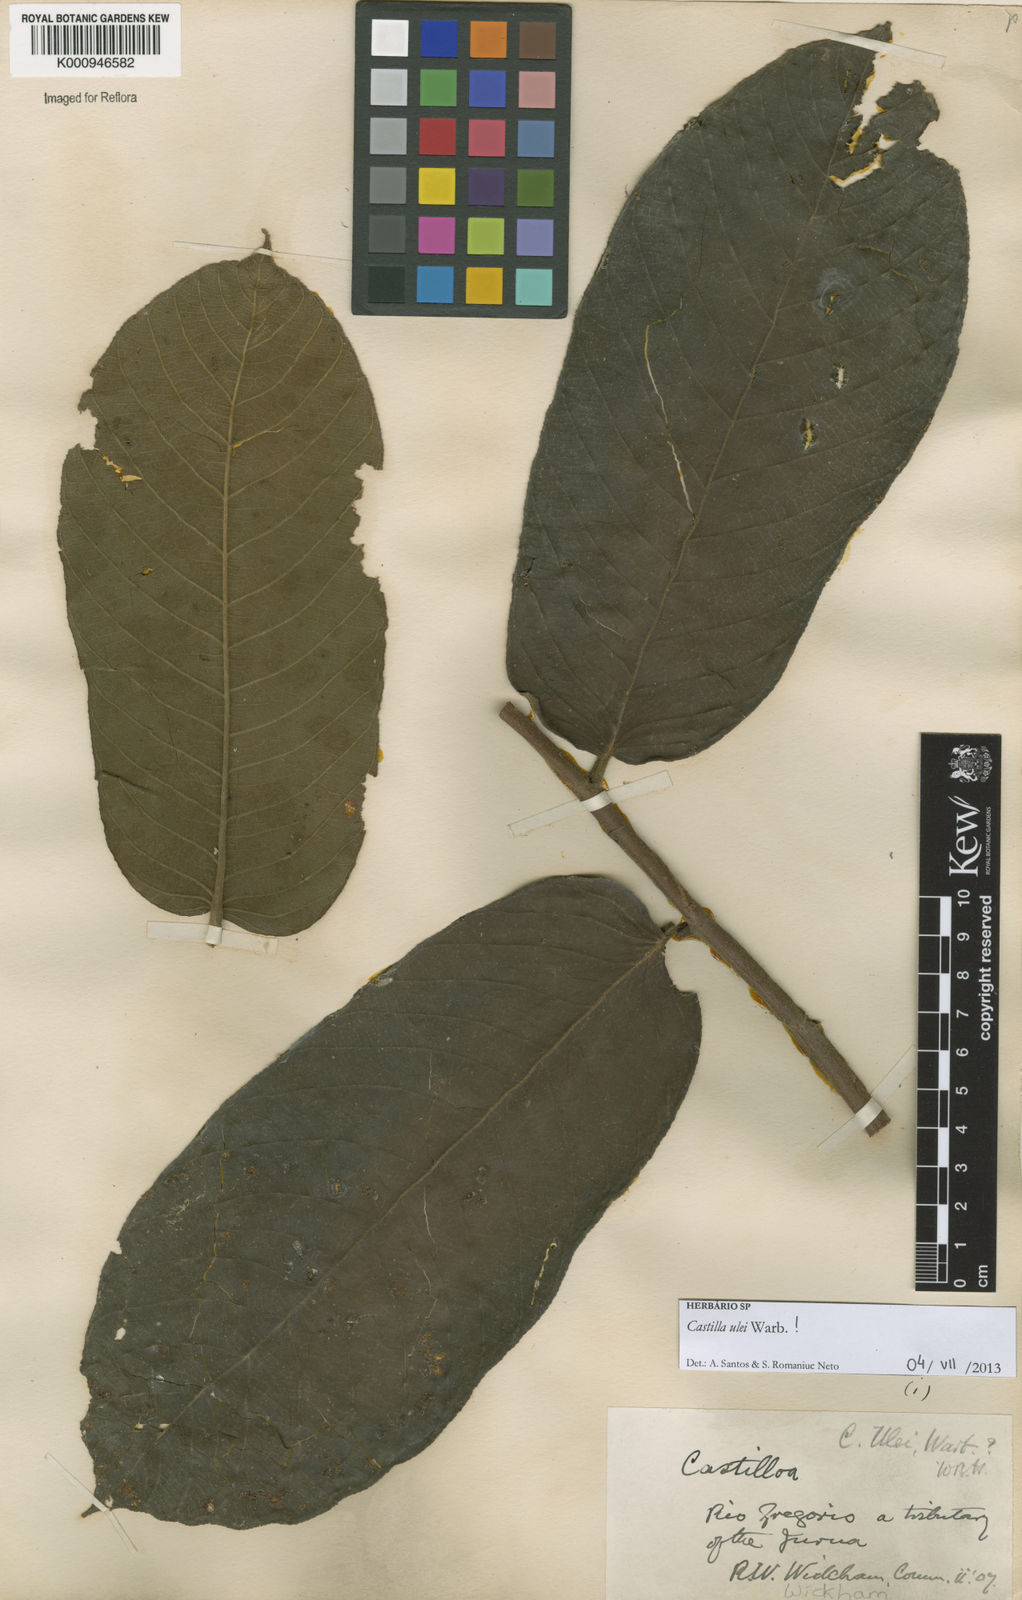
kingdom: Plantae
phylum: Tracheophyta
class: Magnoliopsida
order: Rosales
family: Moraceae
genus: Castilla
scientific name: Castilla ulei
